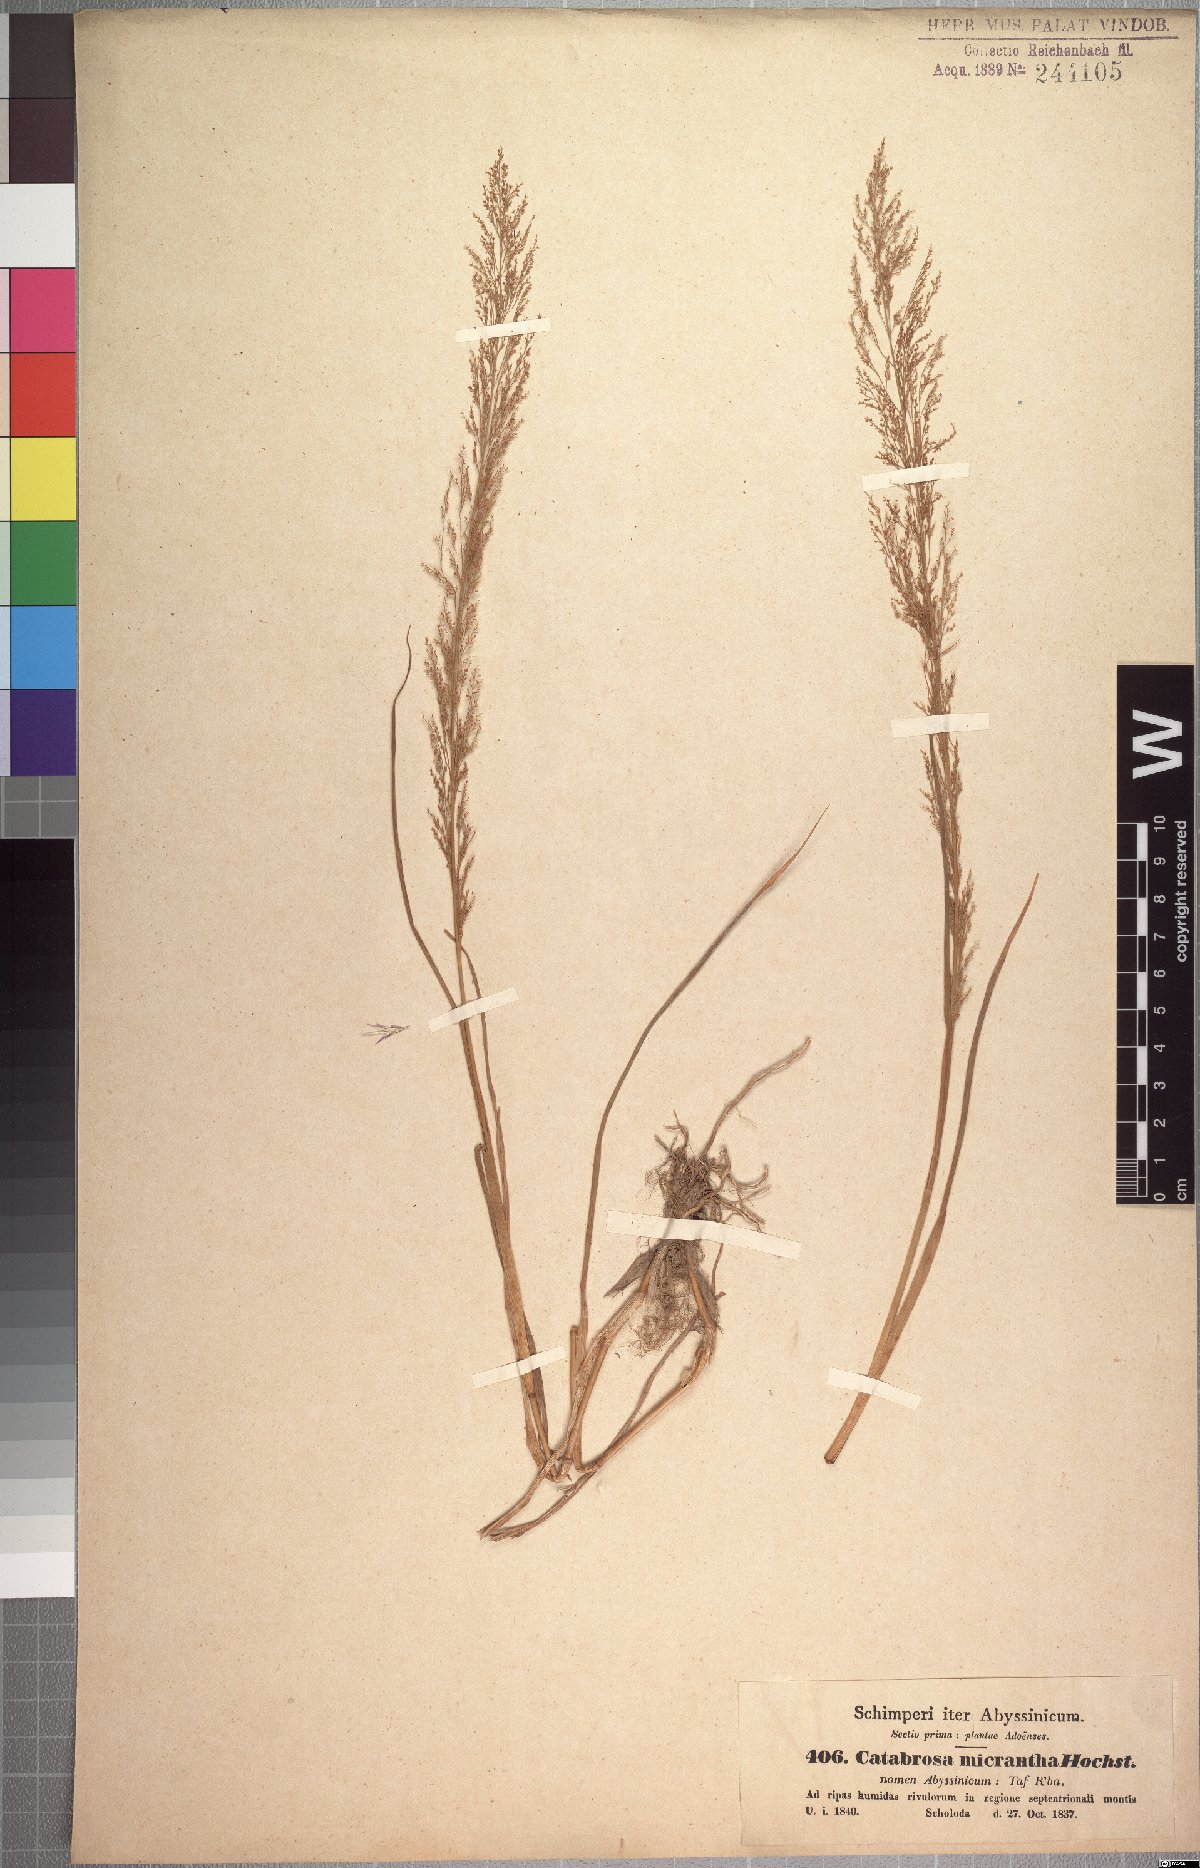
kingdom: Plantae
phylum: Tracheophyta
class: Liliopsida
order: Poales
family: Poaceae
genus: Eragrostis
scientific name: Eragrostis japonica
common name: Pond lovegrass
